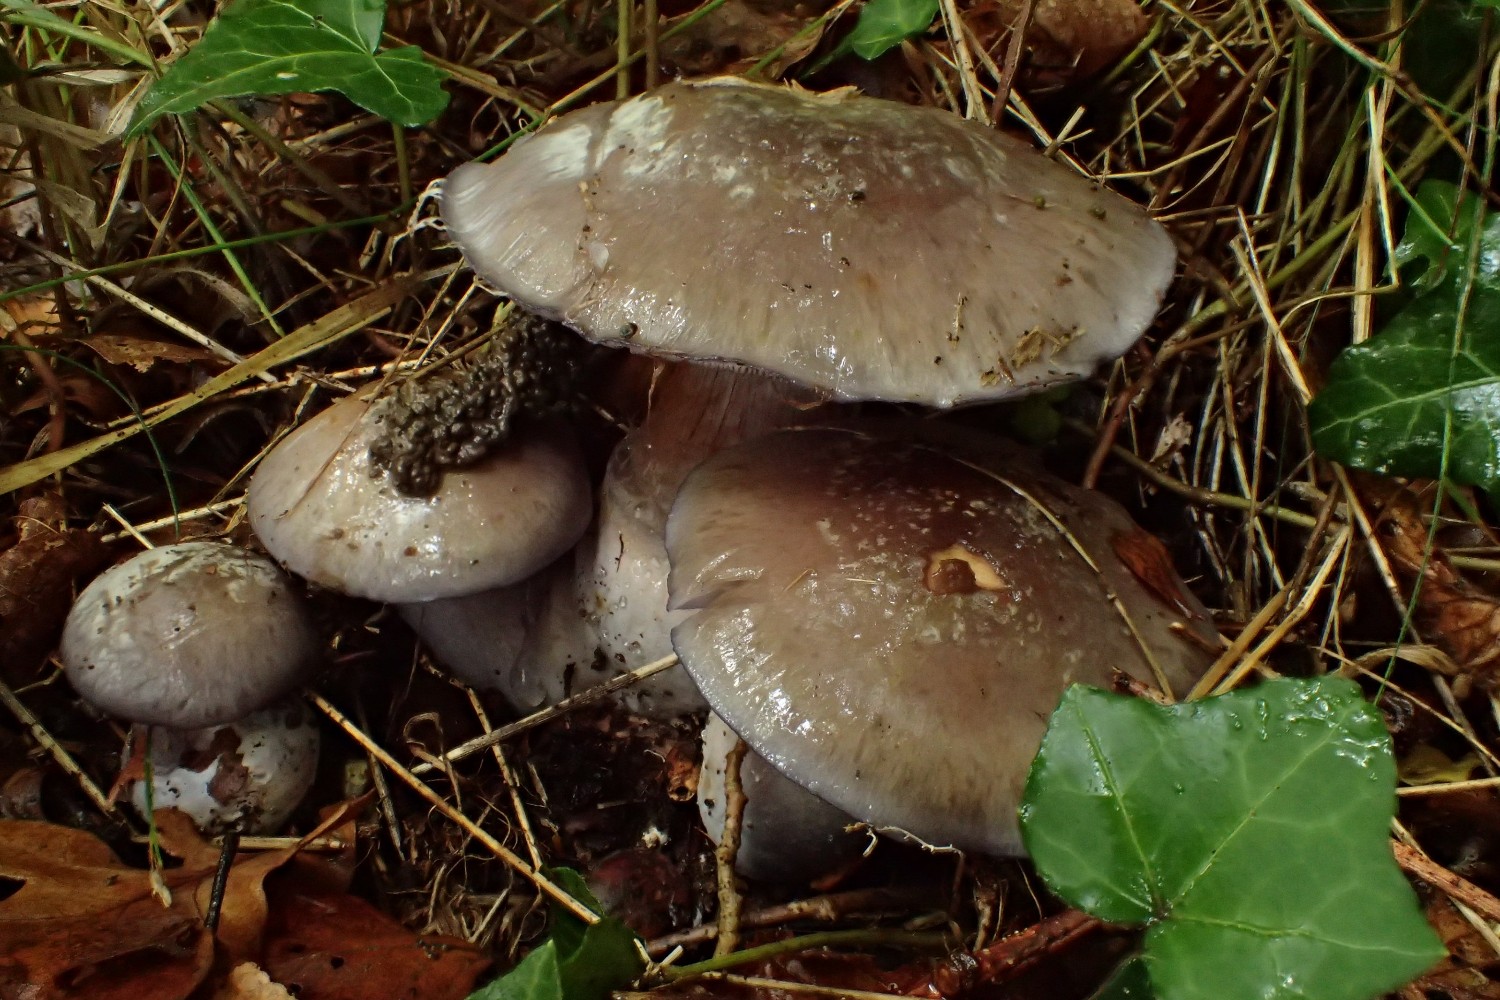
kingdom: Fungi
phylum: Basidiomycota
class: Agaricomycetes
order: Agaricales
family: Cortinariaceae
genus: Phlegmacium
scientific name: Phlegmacium viridocoeruleum
